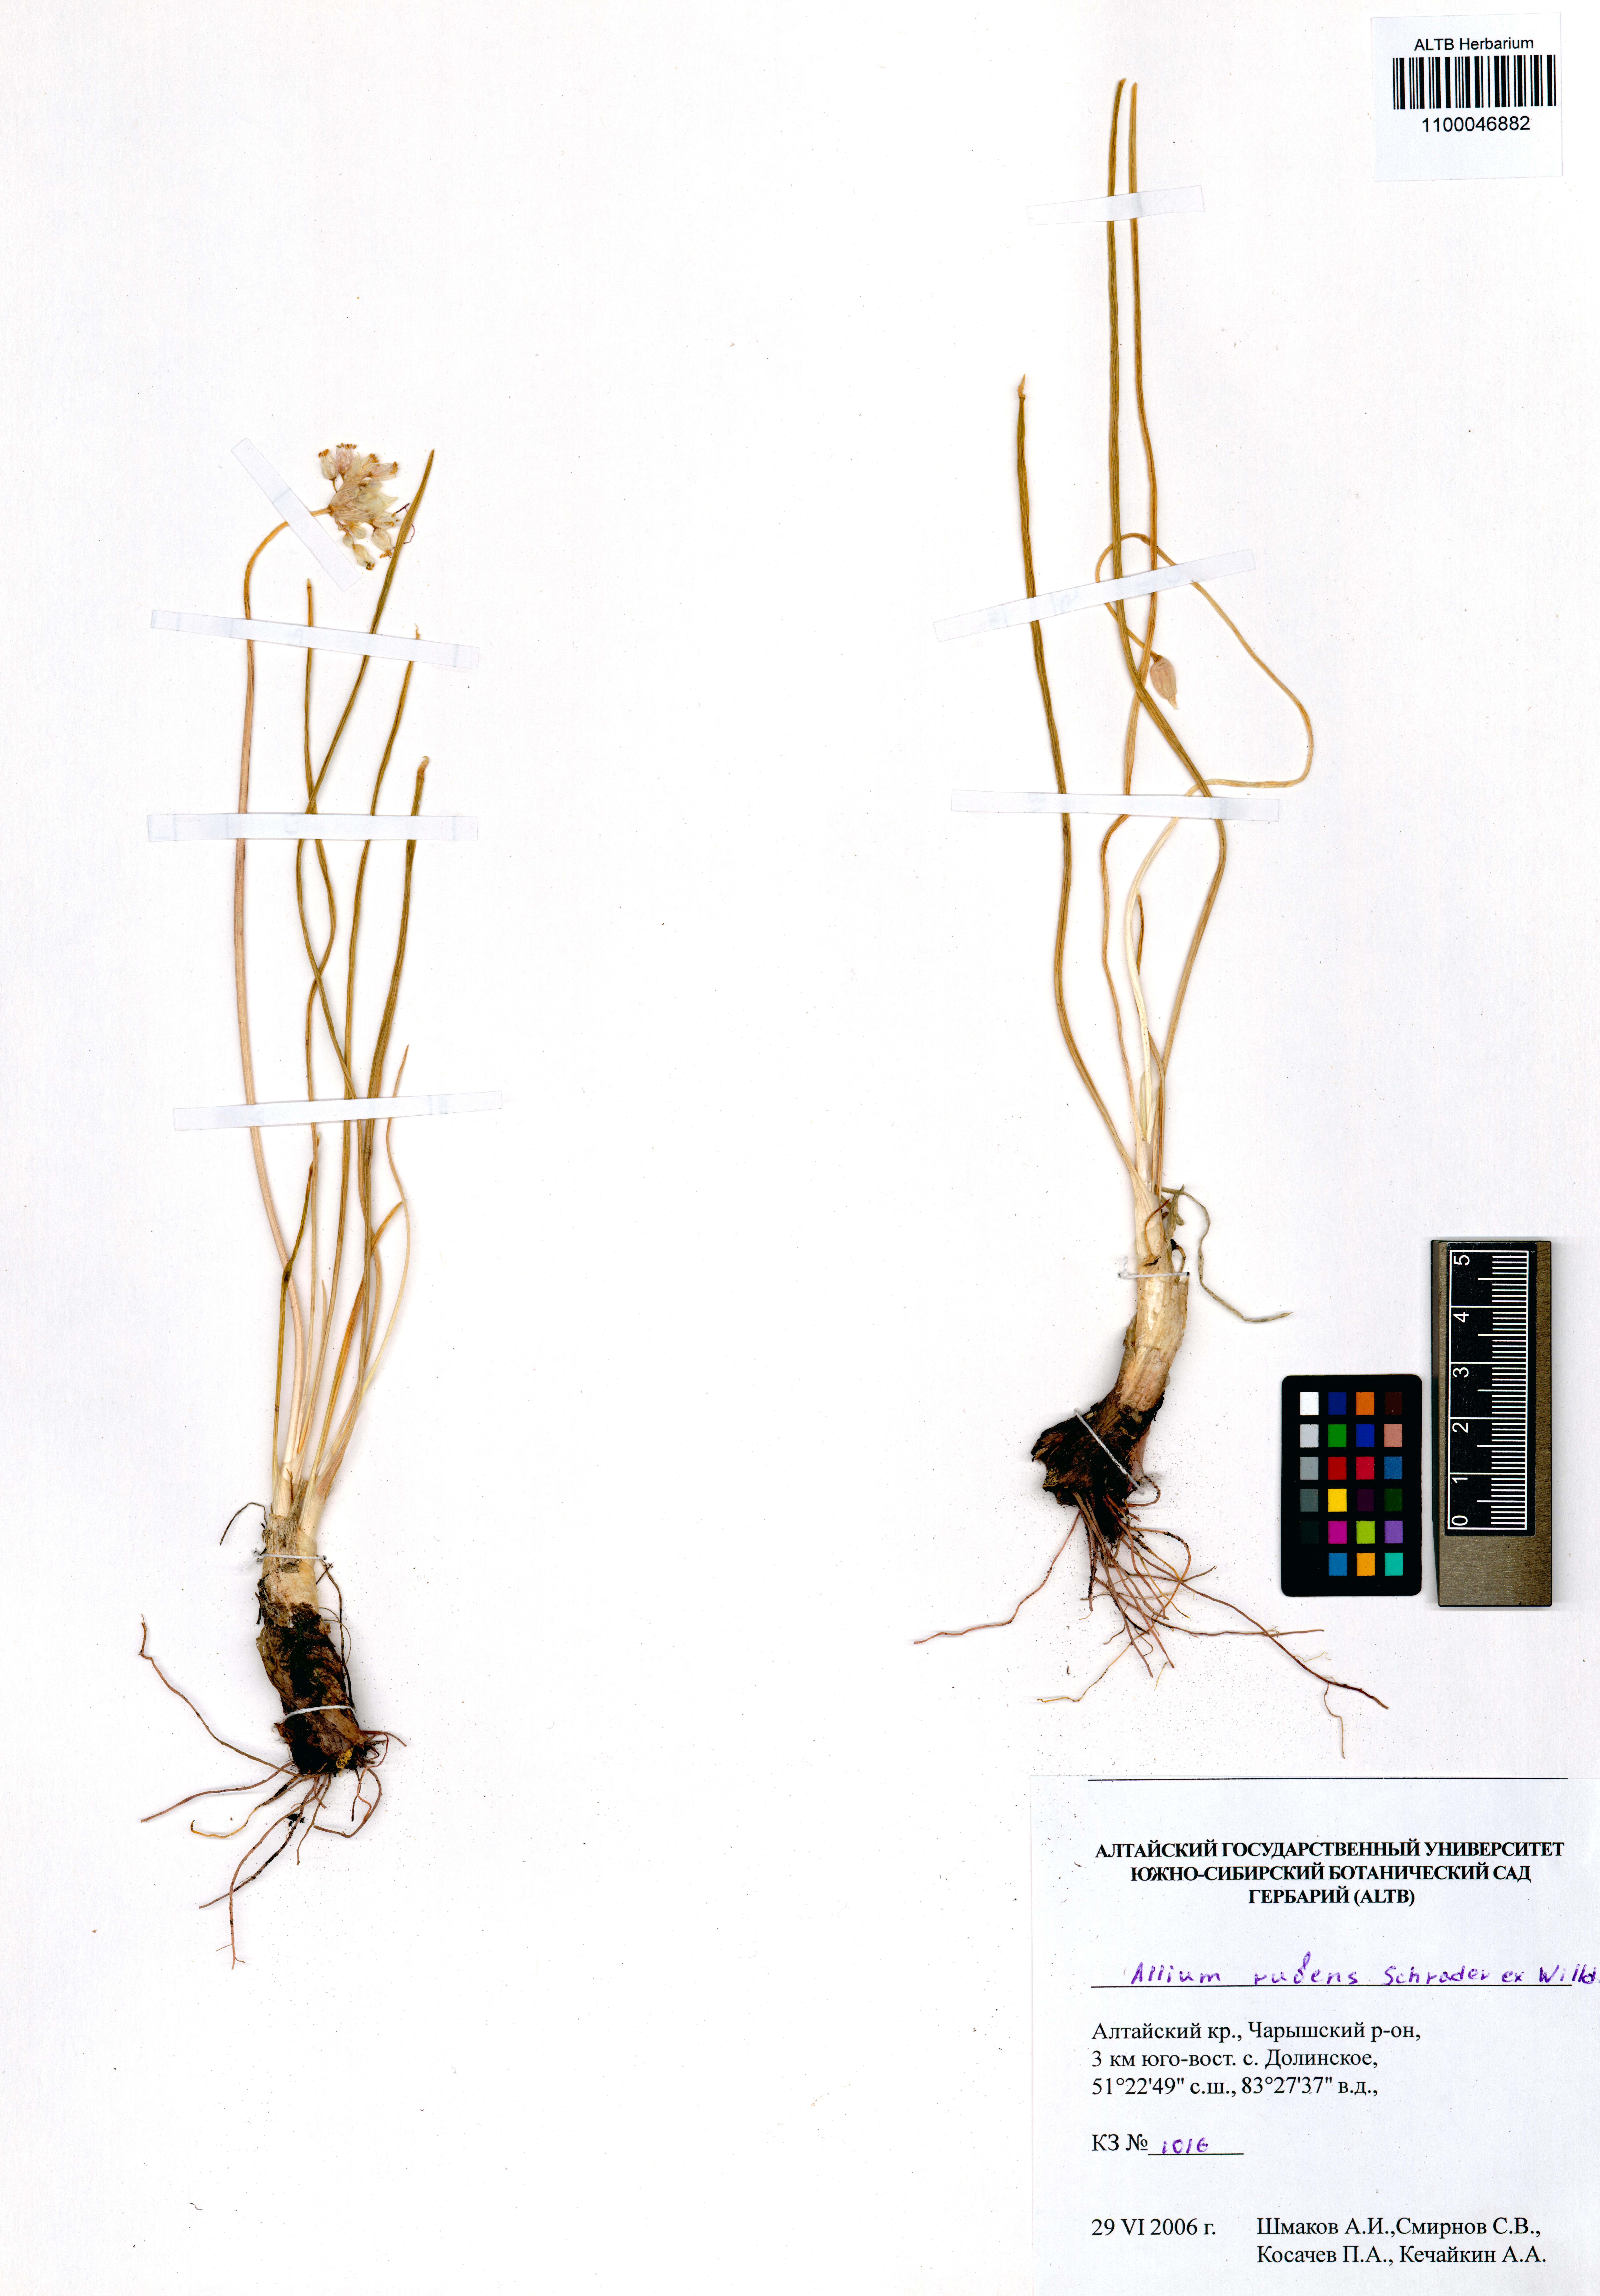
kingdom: Plantae
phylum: Tracheophyta
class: Liliopsida
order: Asparagales
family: Amaryllidaceae
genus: Allium
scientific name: Allium rubens
